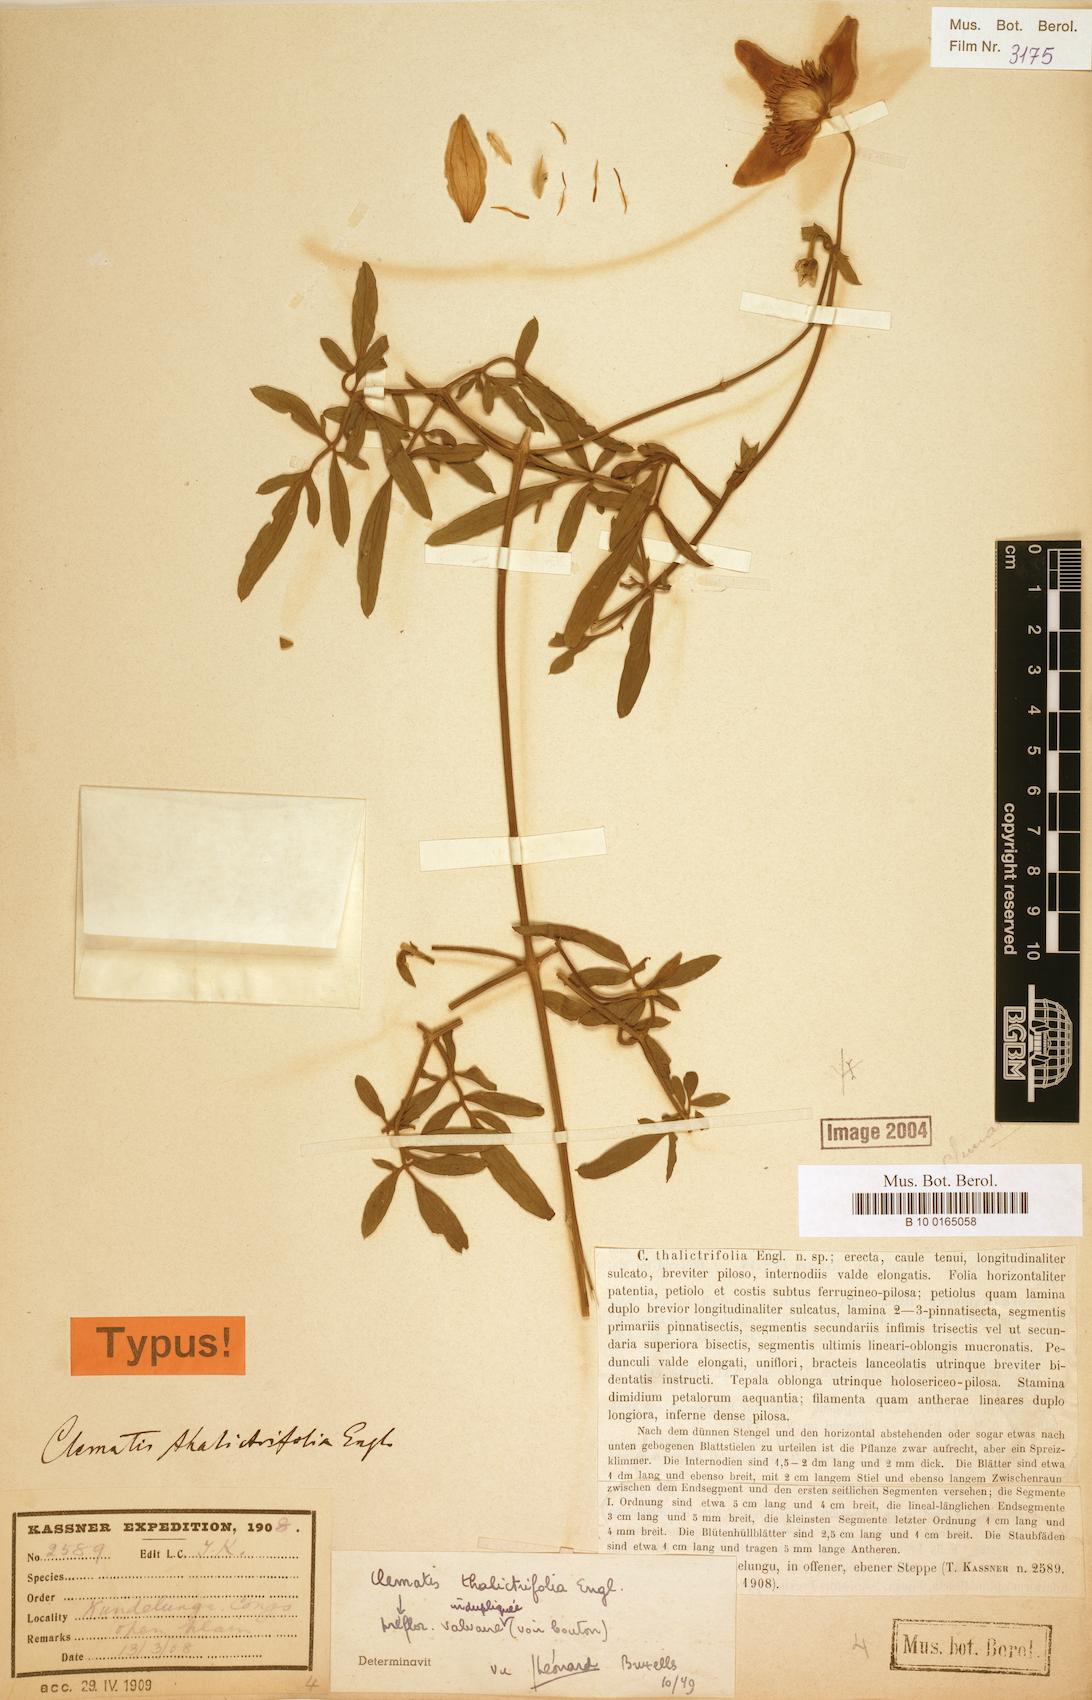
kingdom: Plantae
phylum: Tracheophyta
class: Magnoliopsida
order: Ranunculales
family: Ranunculaceae
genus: Clematis
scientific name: Clematis thalictrifolia
